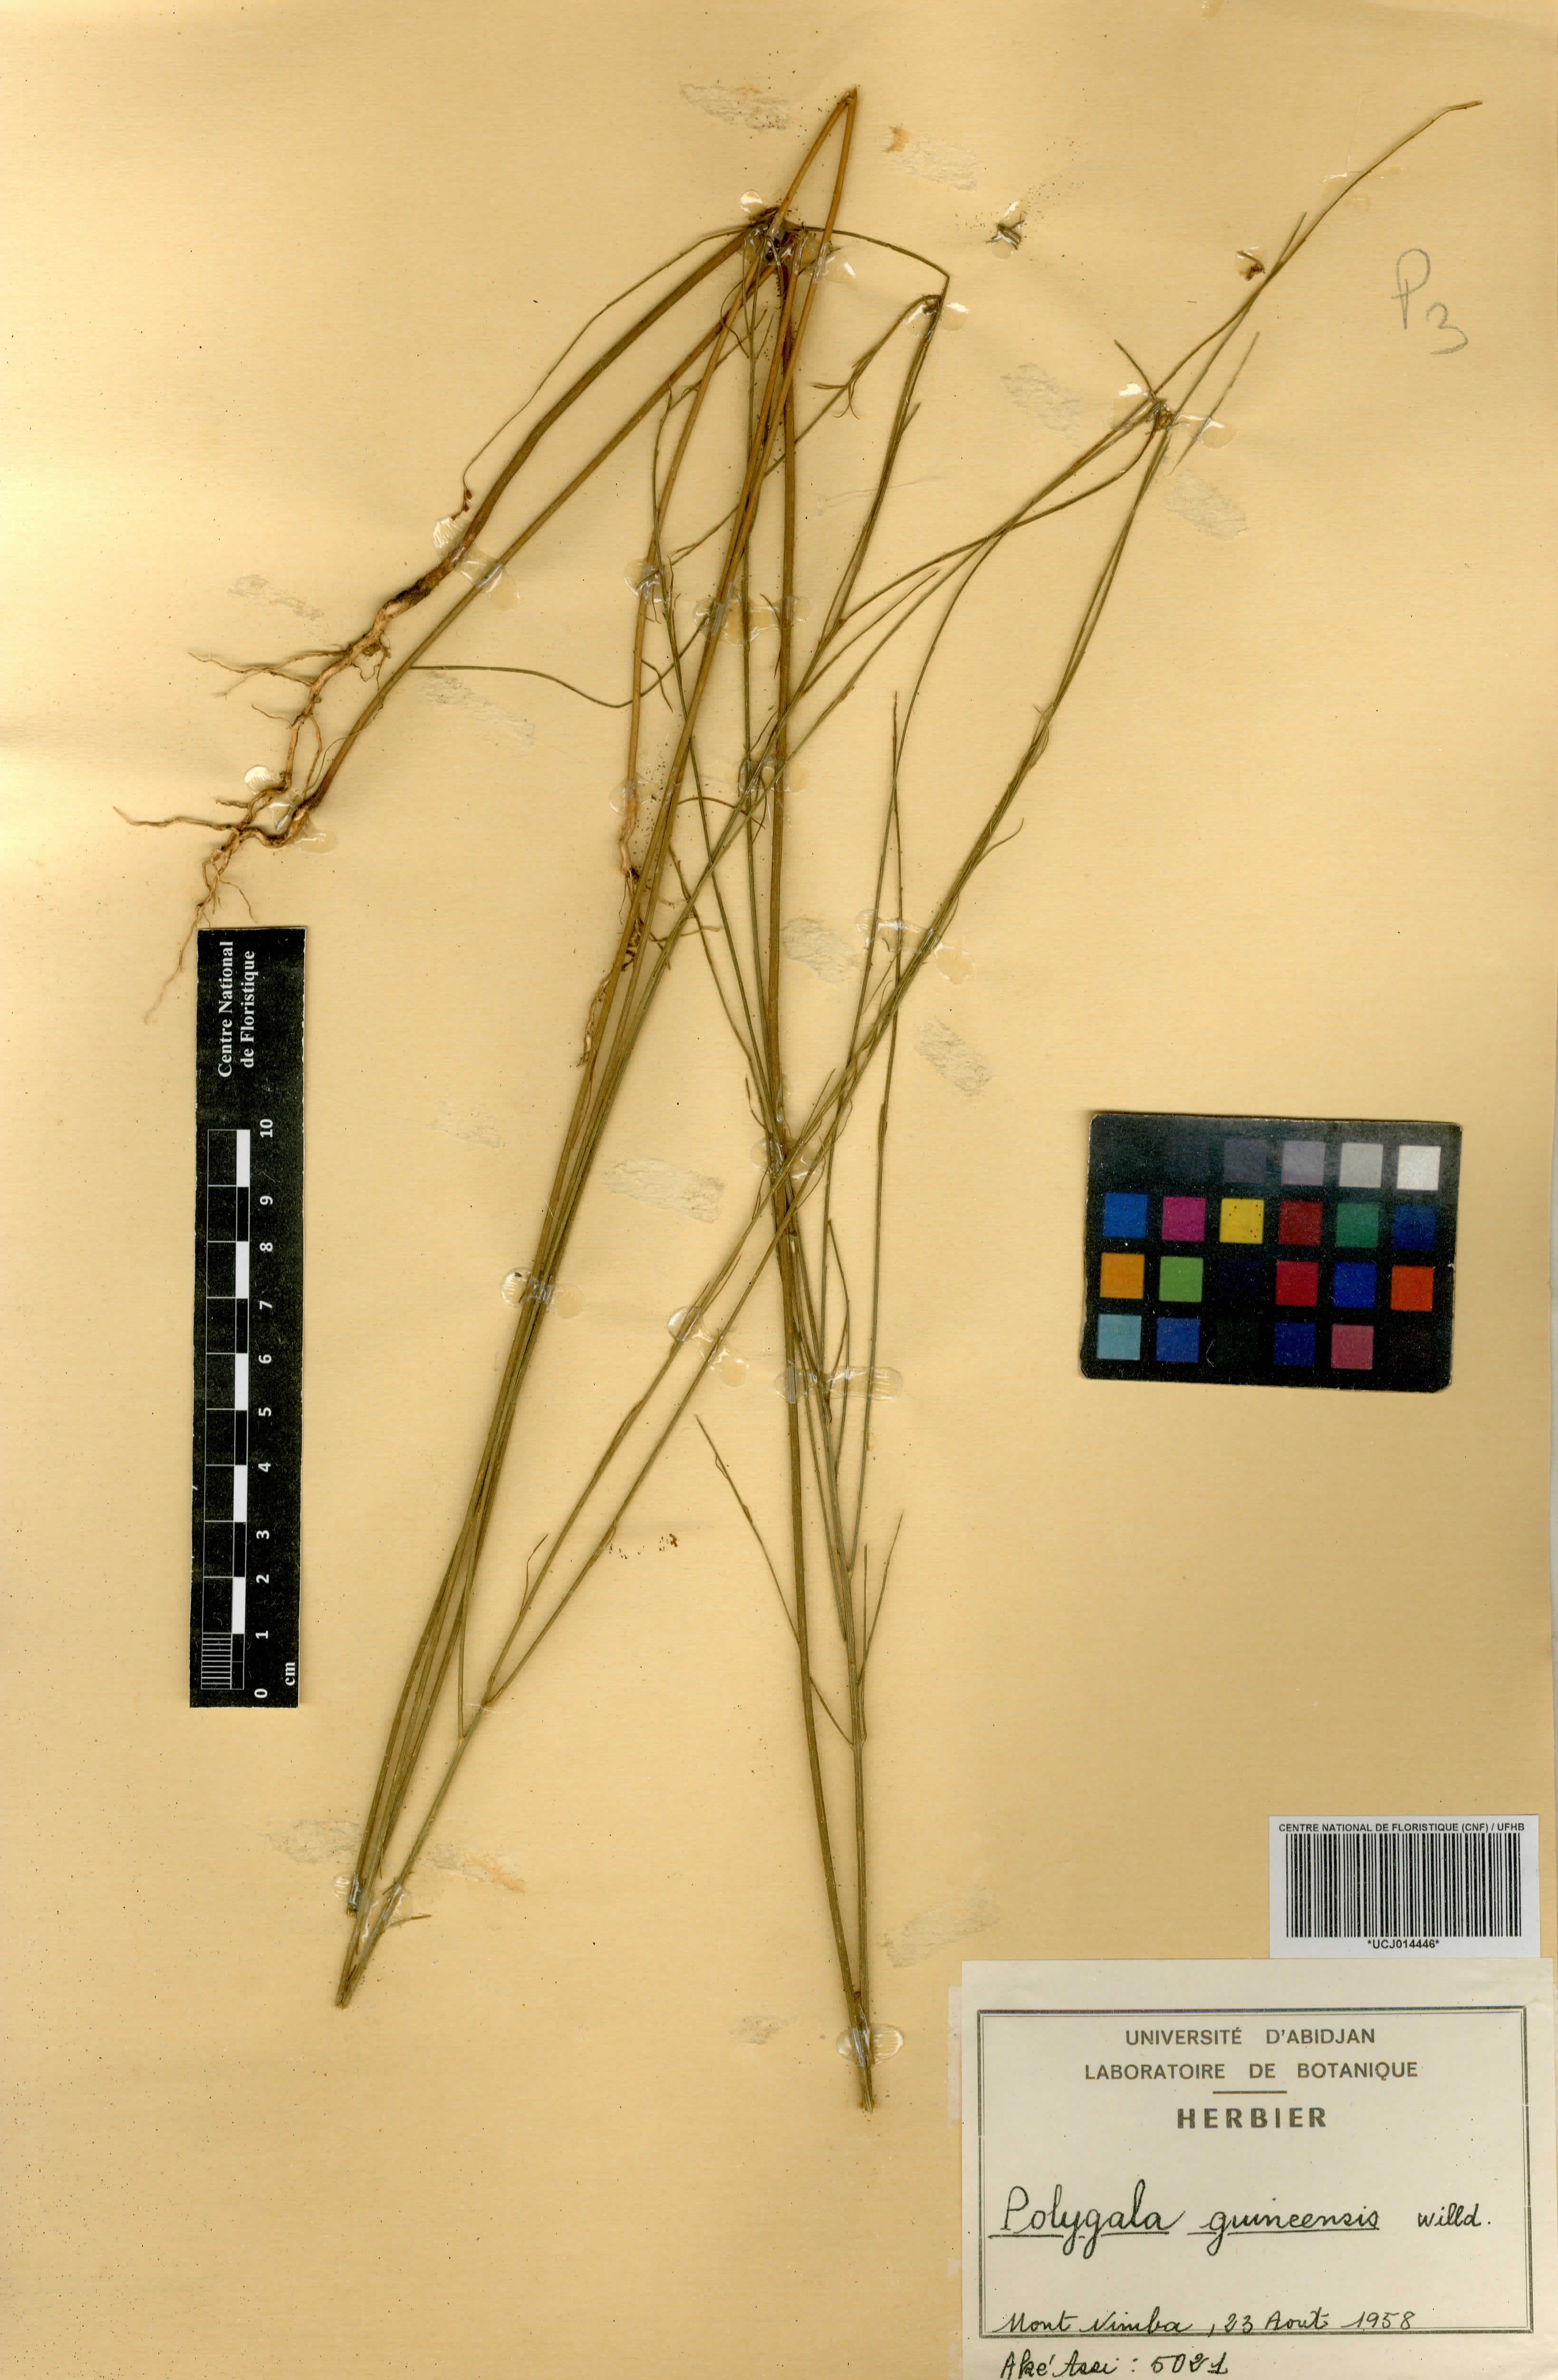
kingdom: Plantae
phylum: Tracheophyta
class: Magnoliopsida
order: Fabales
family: Polygalaceae
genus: Polygala
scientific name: Polygala guineensis
